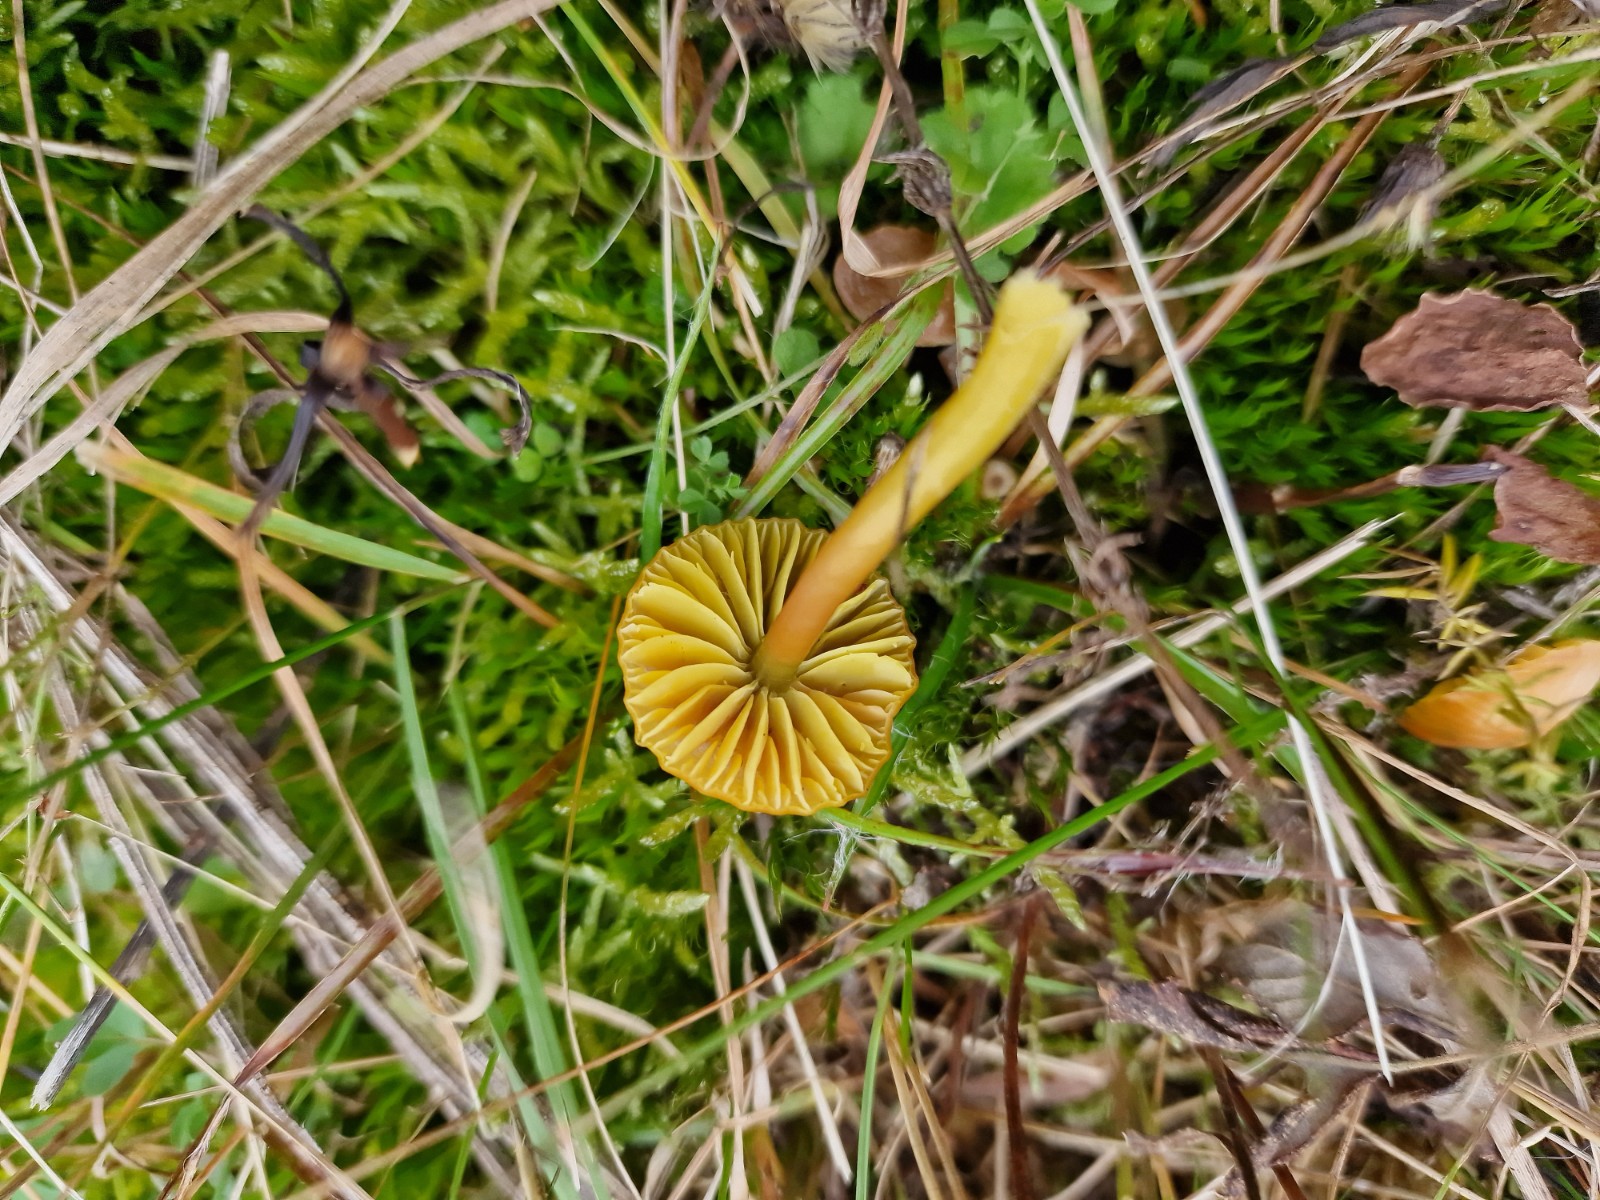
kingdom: Fungi
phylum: Basidiomycota
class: Agaricomycetes
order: Agaricales
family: Hygrophoraceae
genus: Gliophorus
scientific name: Gliophorus psittacinus
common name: papegøje-vokshat
